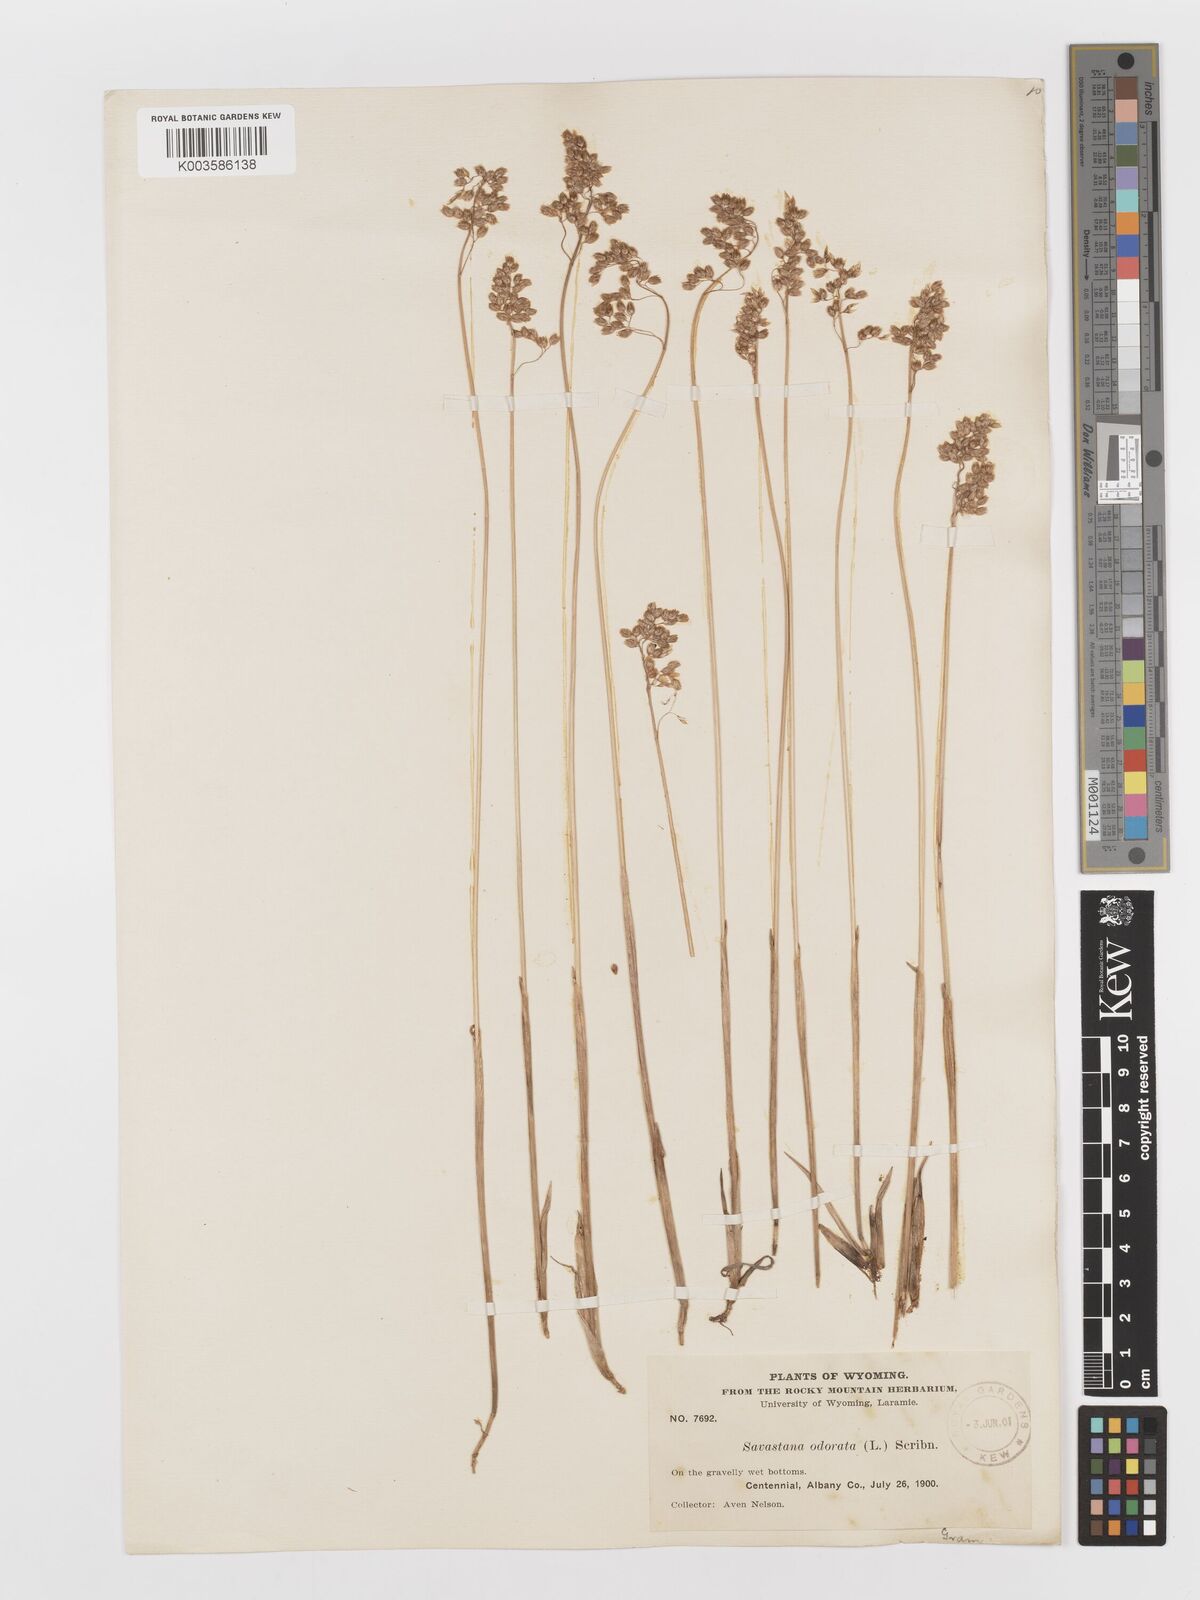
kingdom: Plantae
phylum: Tracheophyta
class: Liliopsida
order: Poales
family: Poaceae
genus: Anthoxanthum
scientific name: Anthoxanthum nitens
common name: Holy grass
